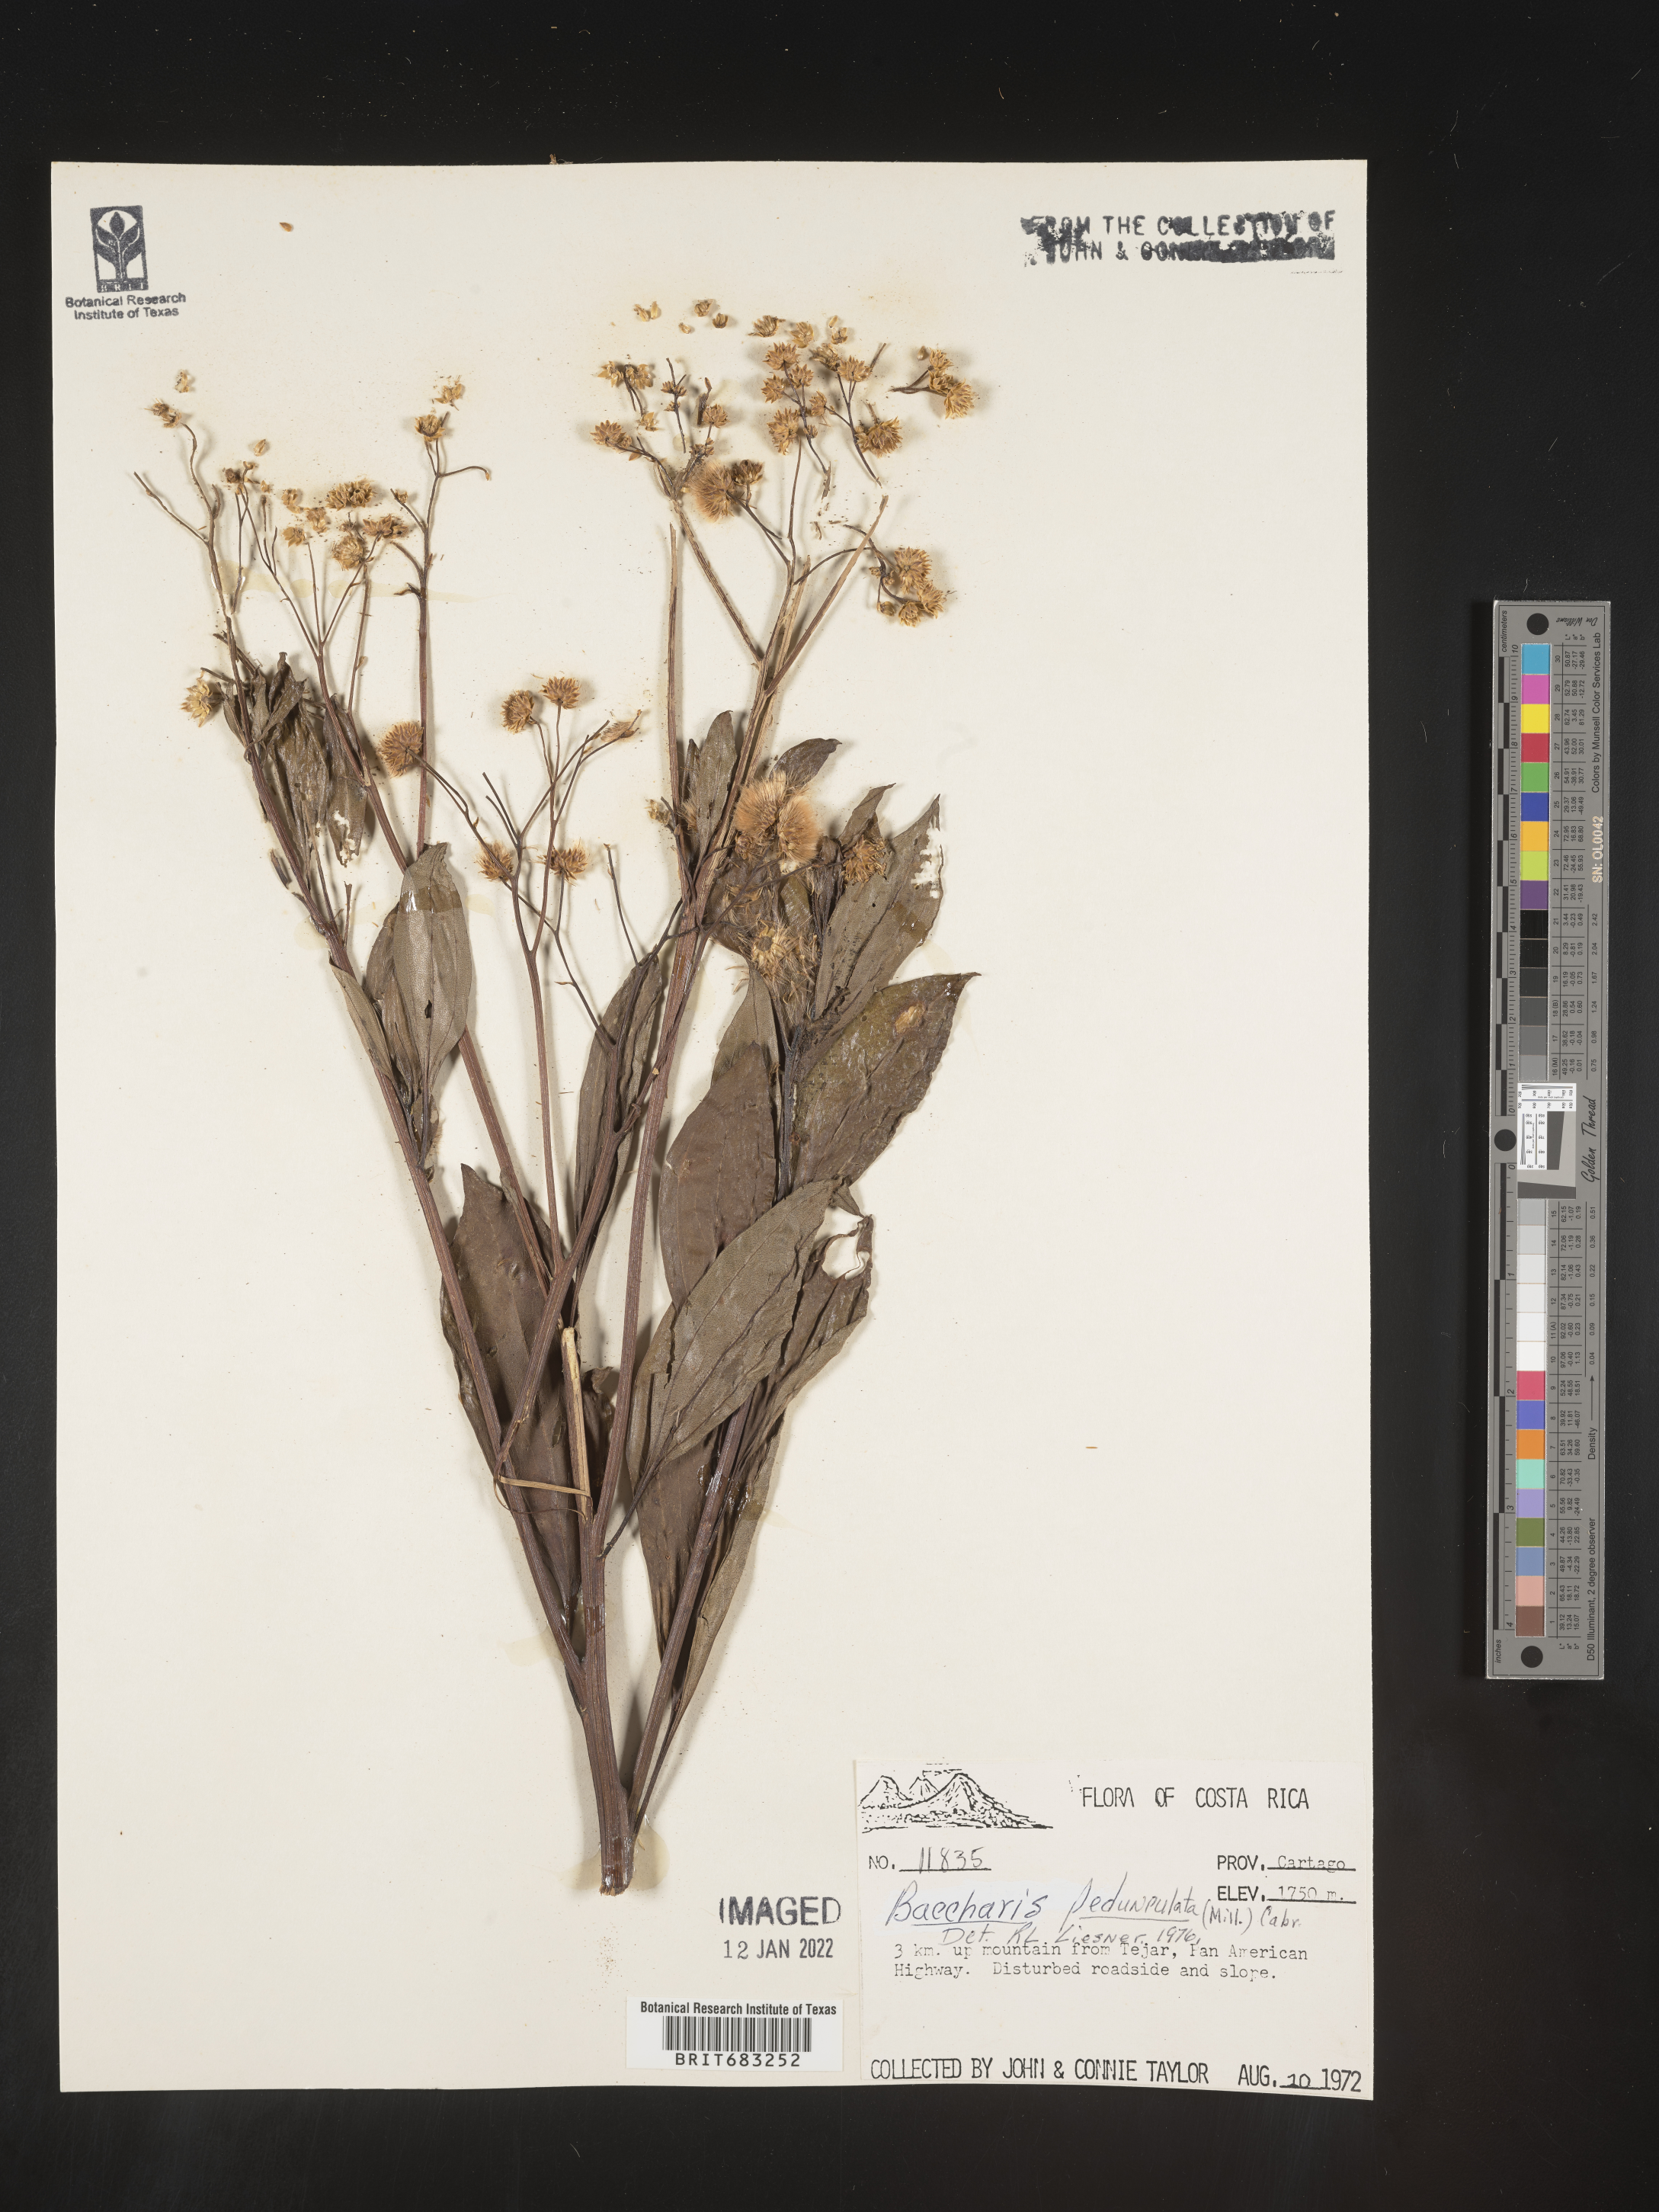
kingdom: Plantae
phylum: Tracheophyta
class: Magnoliopsida
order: Asterales
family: Asteraceae
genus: Baccharis
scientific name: Baccharis pedunculata
